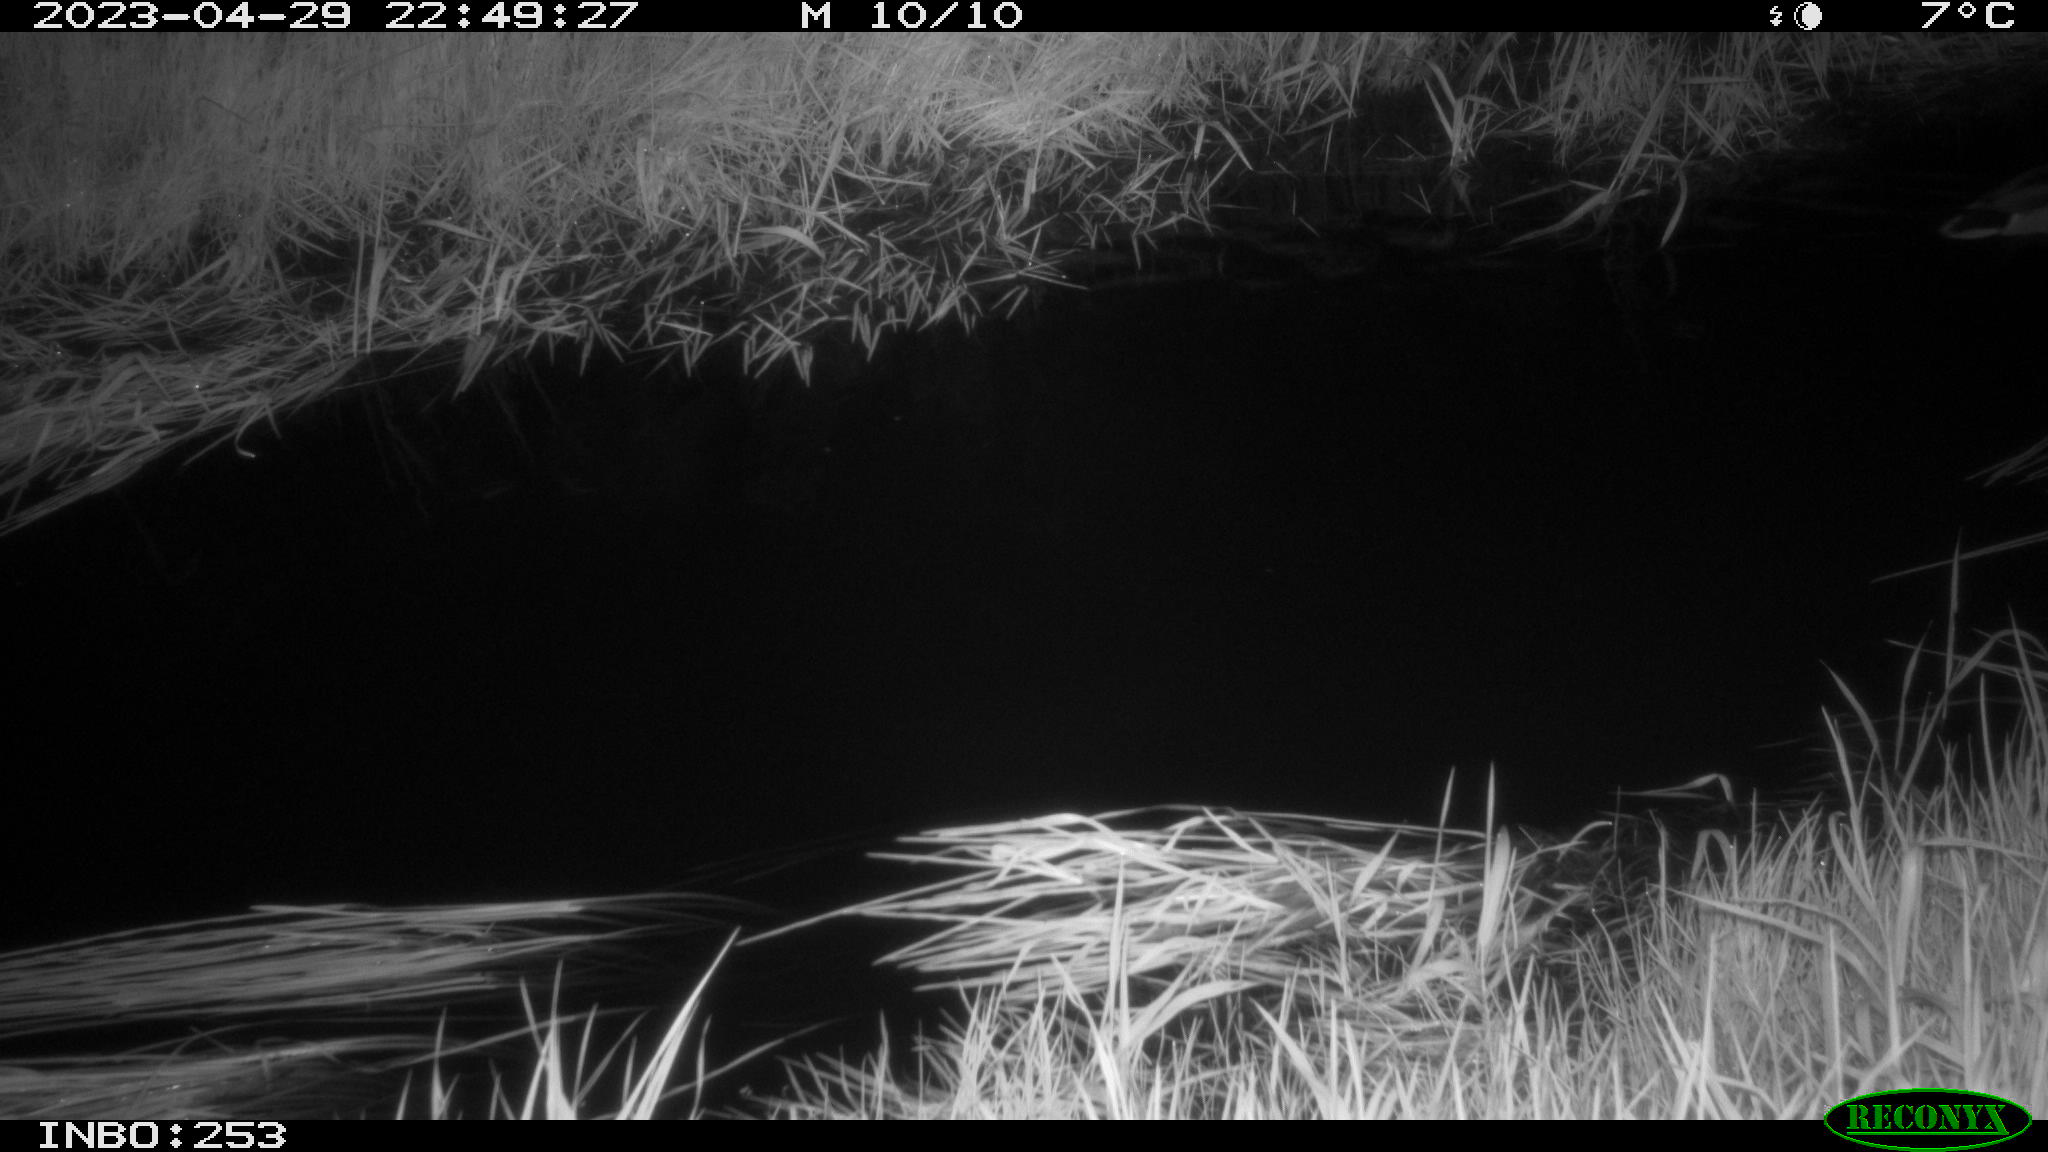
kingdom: Animalia
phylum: Chordata
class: Aves
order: Anseriformes
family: Anatidae
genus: Anas
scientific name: Anas
